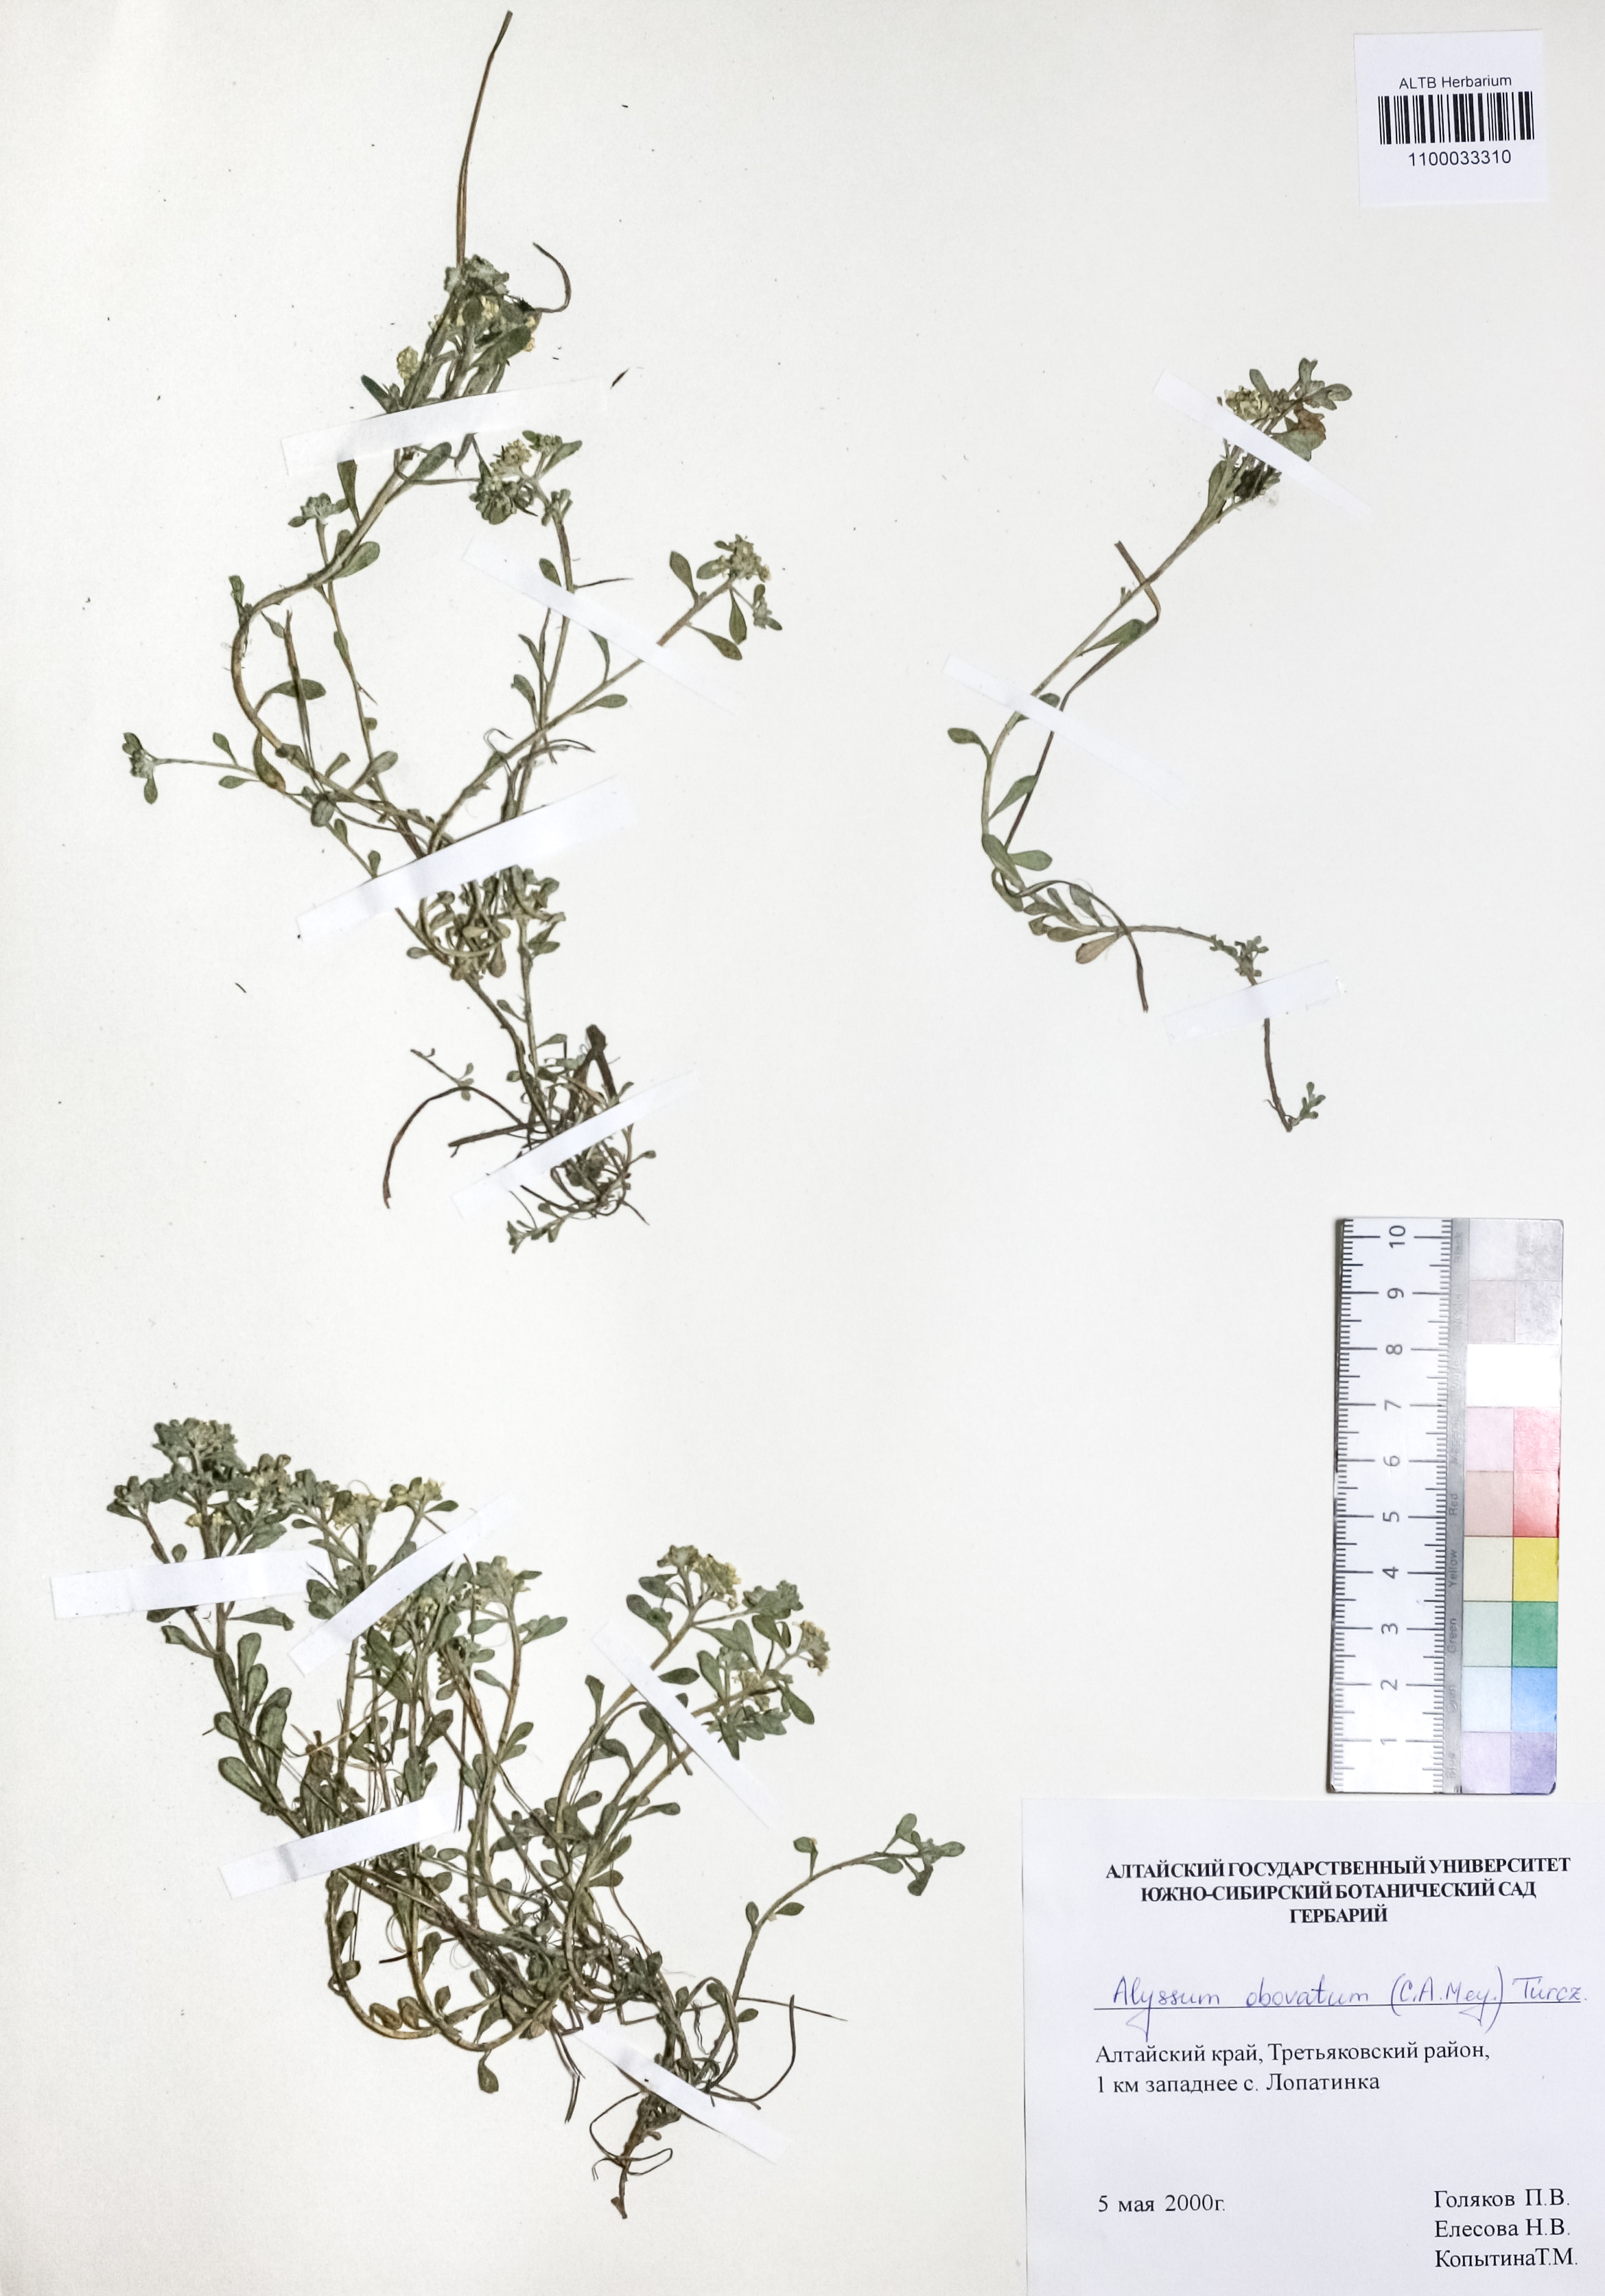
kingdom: Plantae
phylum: Tracheophyta
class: Magnoliopsida
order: Brassicales
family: Brassicaceae
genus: Odontarrhena
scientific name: Odontarrhena obovata
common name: American alyssum
